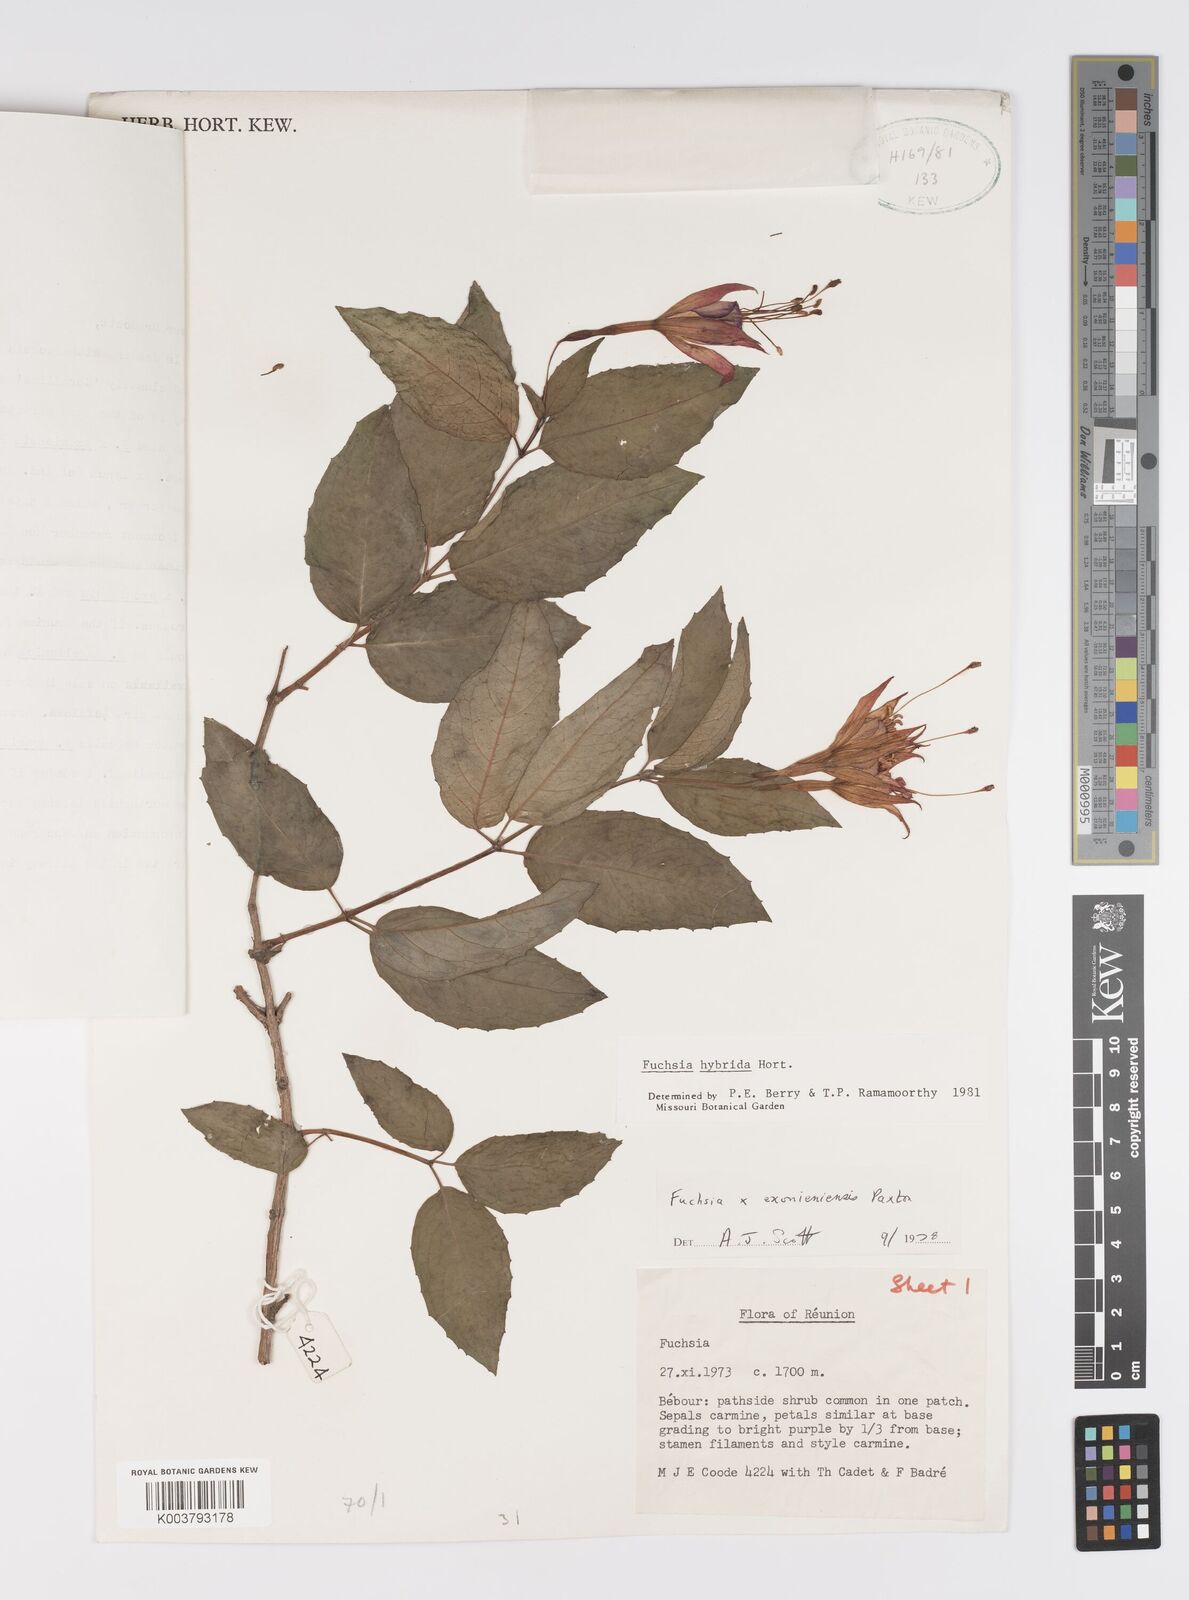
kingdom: Plantae
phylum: Tracheophyta
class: Magnoliopsida
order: Myrtales
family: Onagraceae
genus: Fuchsia
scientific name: Fuchsia
